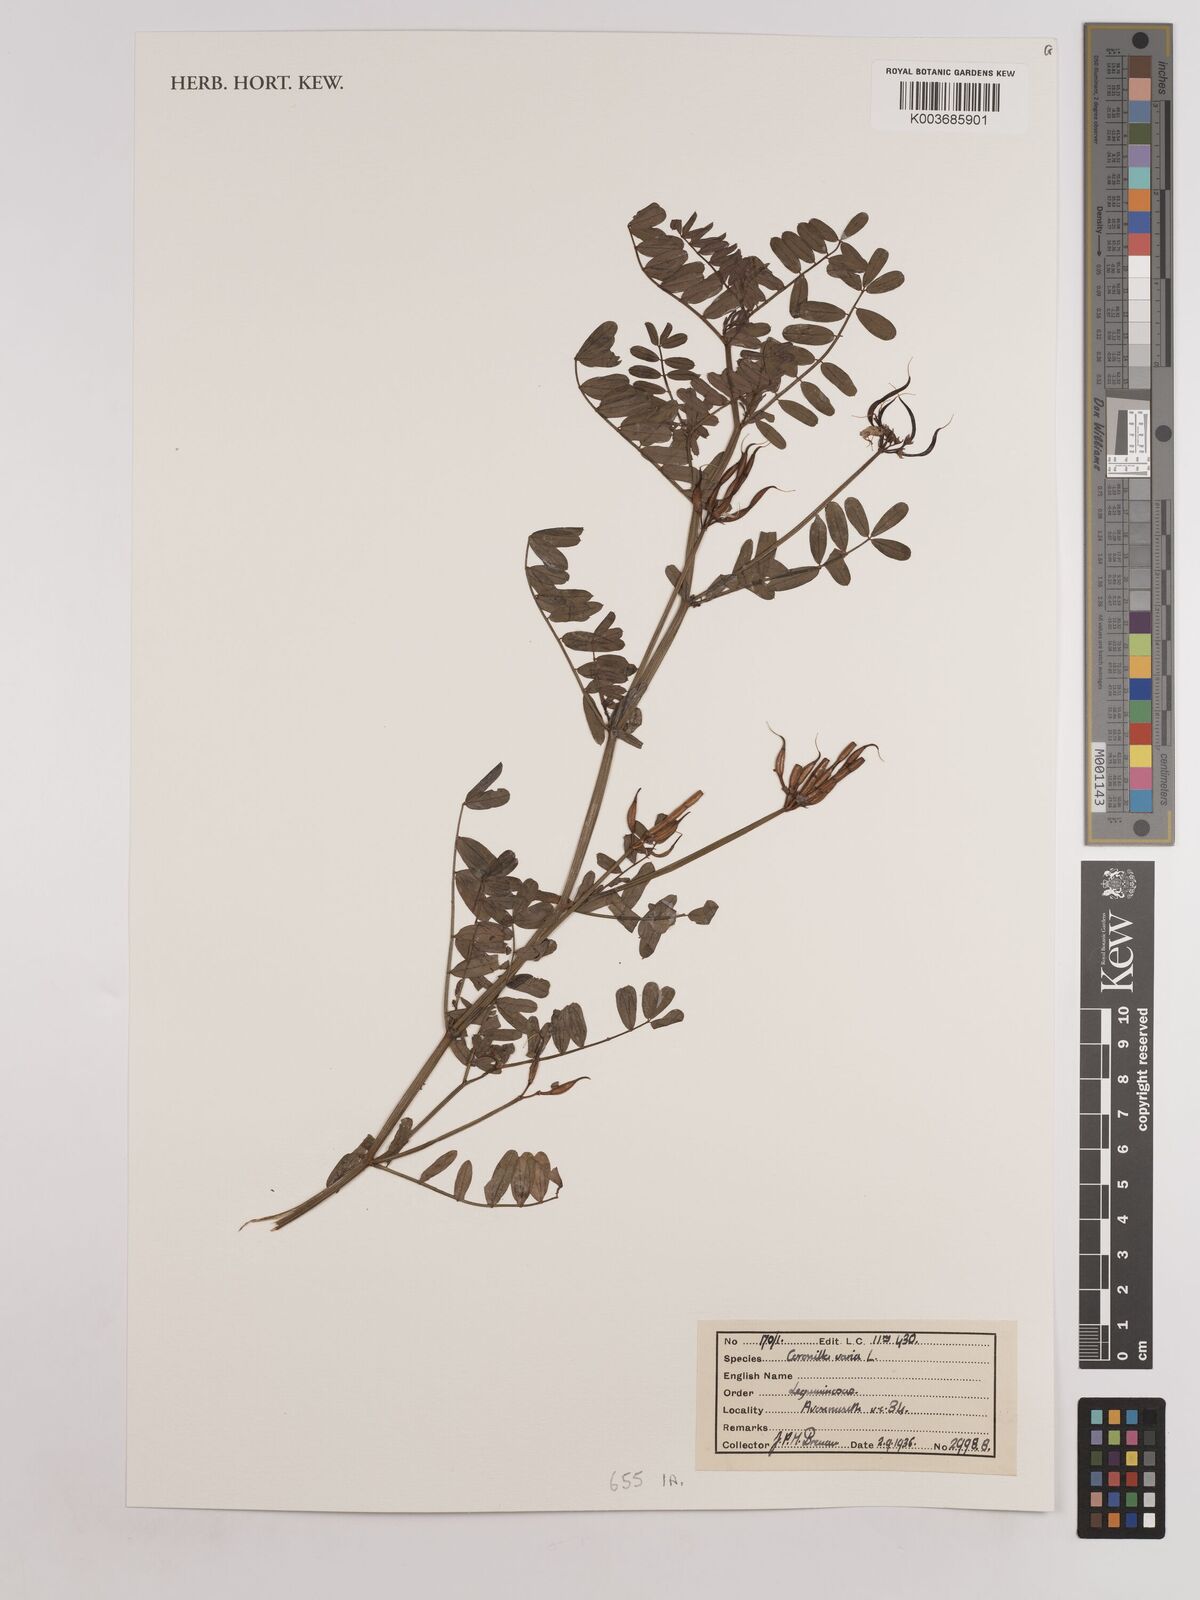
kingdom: Plantae
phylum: Tracheophyta
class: Magnoliopsida
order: Fabales
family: Fabaceae
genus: Coronilla
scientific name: Coronilla varia
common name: Crownvetch
